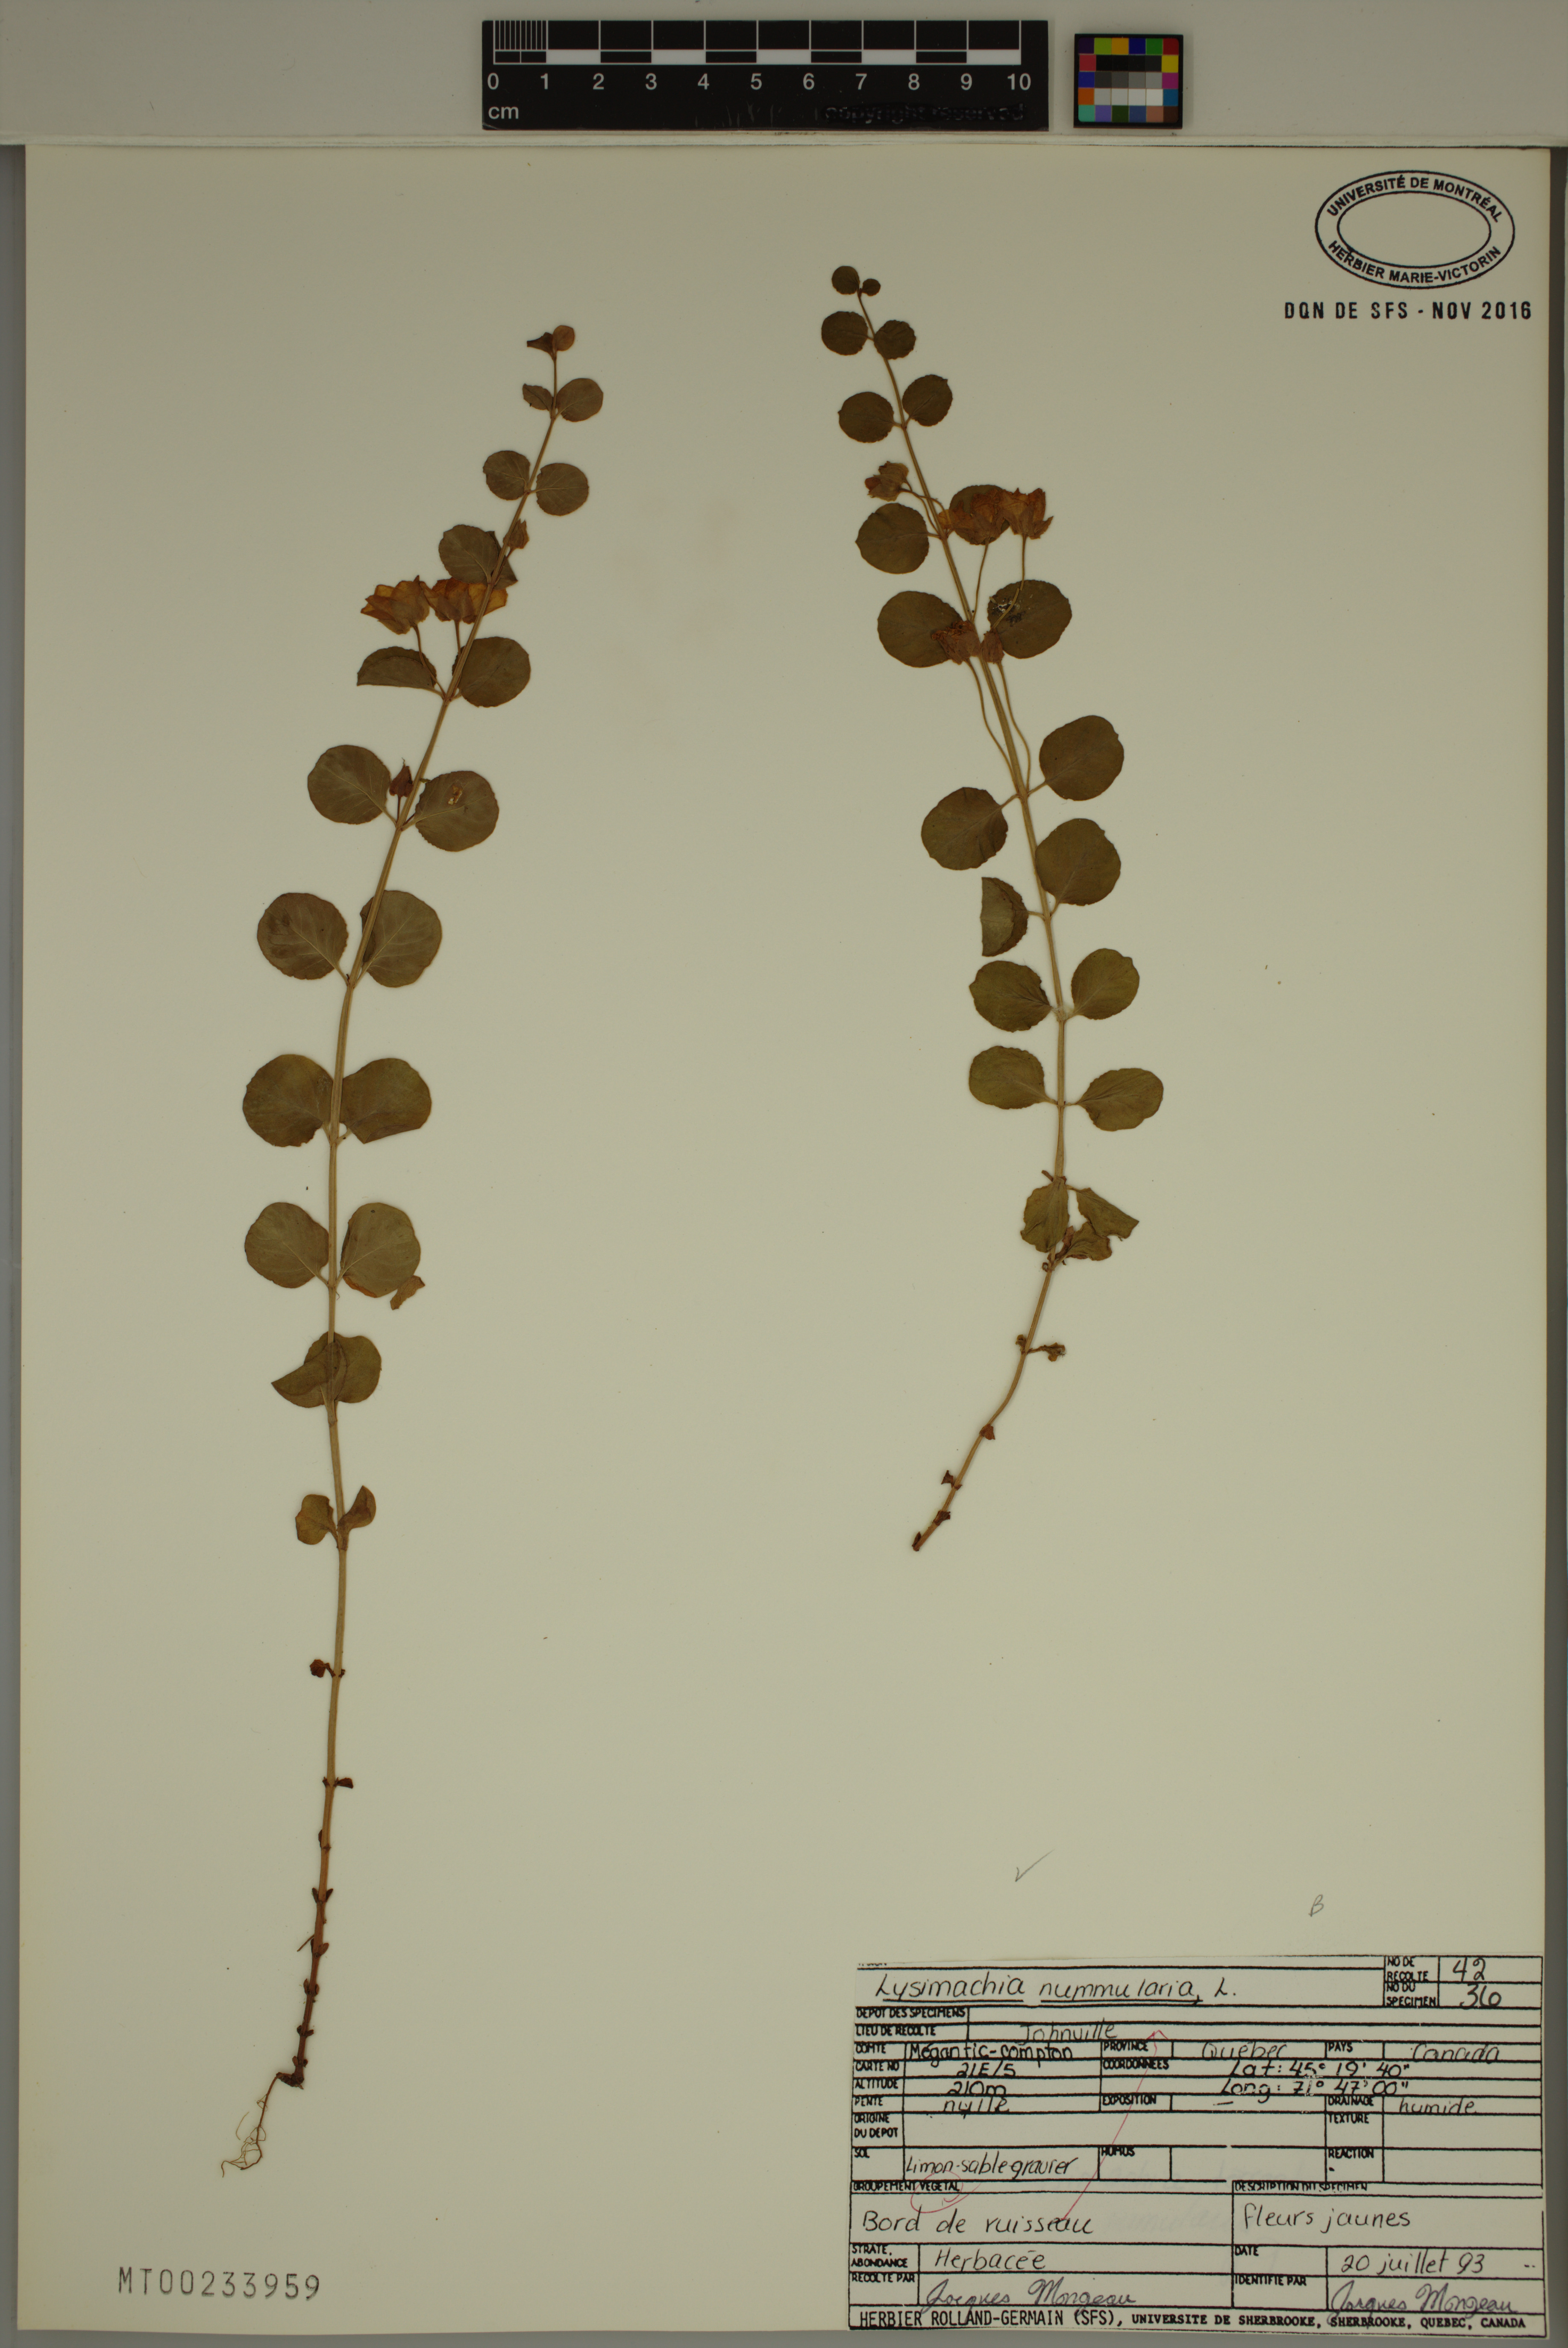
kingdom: Plantae
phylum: Tracheophyta
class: Magnoliopsida
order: Ericales
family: Primulaceae
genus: Lysimachia
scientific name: Lysimachia nummularia
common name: Moneywort
